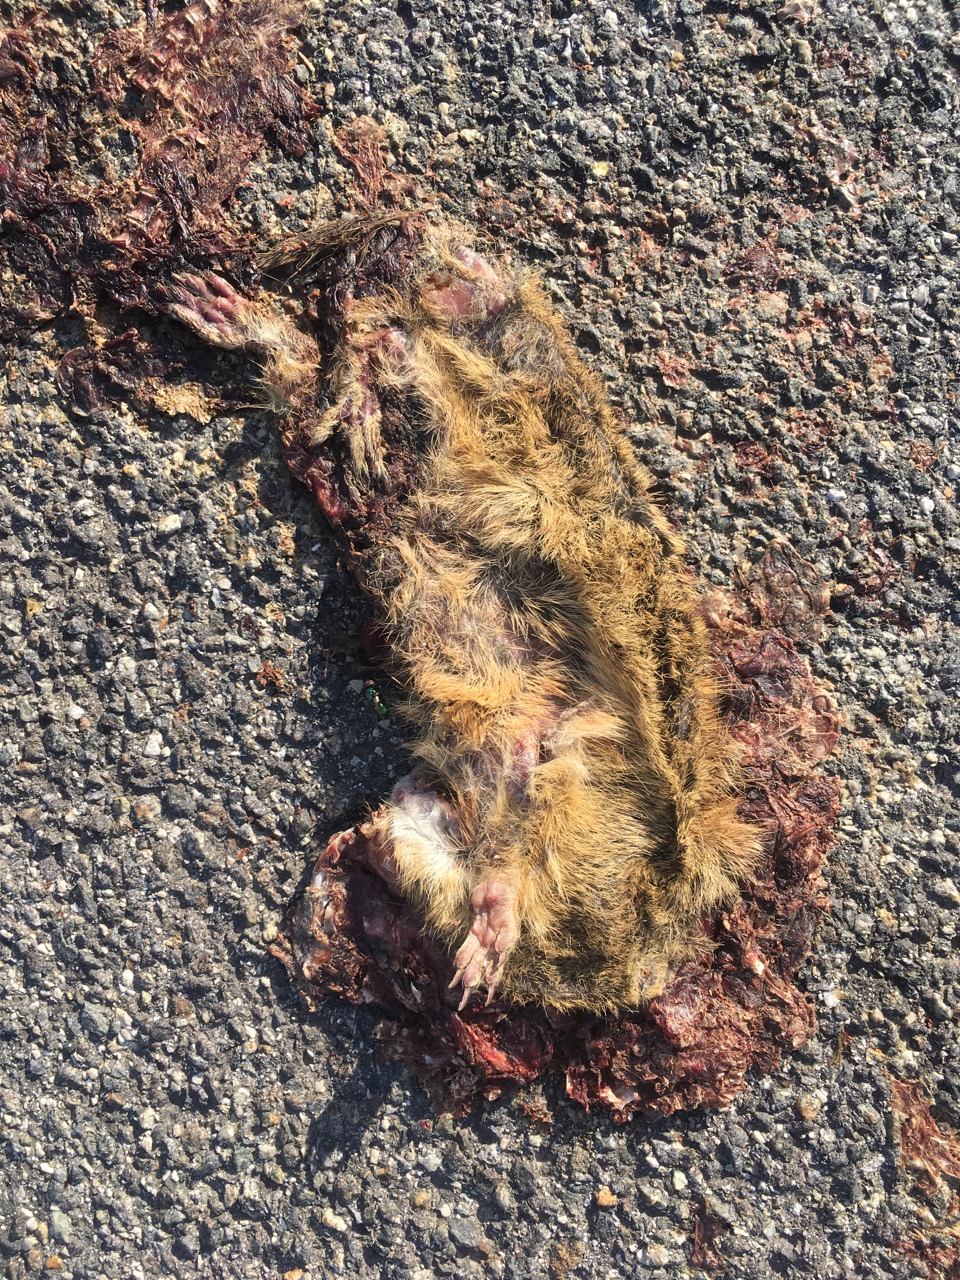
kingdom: Animalia
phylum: Chordata
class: Mammalia
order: Rodentia
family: Sciuridae
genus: Spermophilus
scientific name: Spermophilus citellus
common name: European ground squirrel
